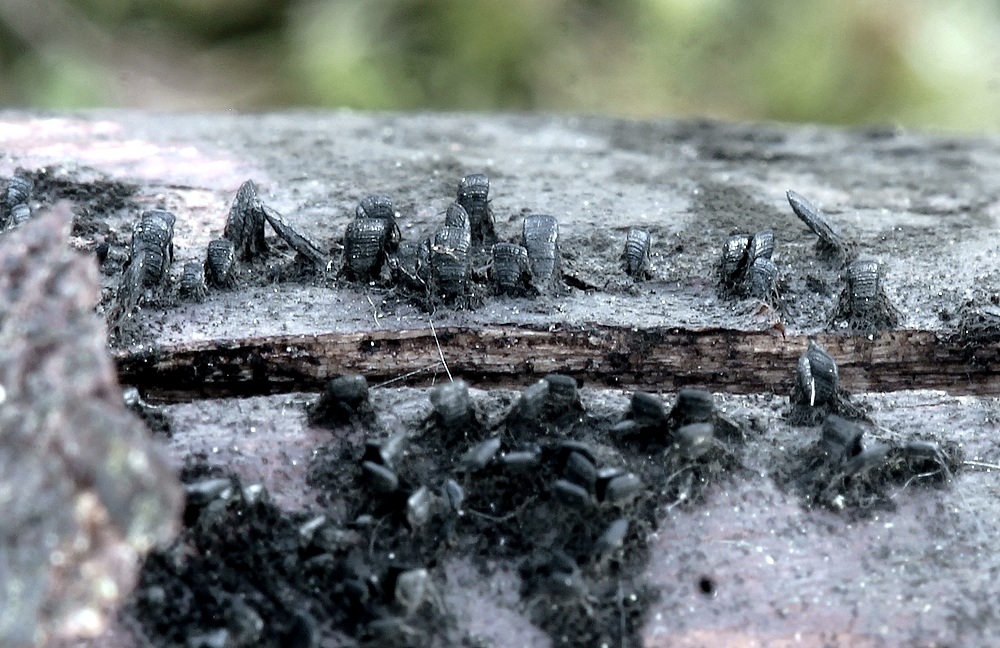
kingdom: Fungi
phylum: Ascomycota
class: Eurotiomycetes
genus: Glyphium
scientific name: Glyphium elatum
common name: kuløkse
